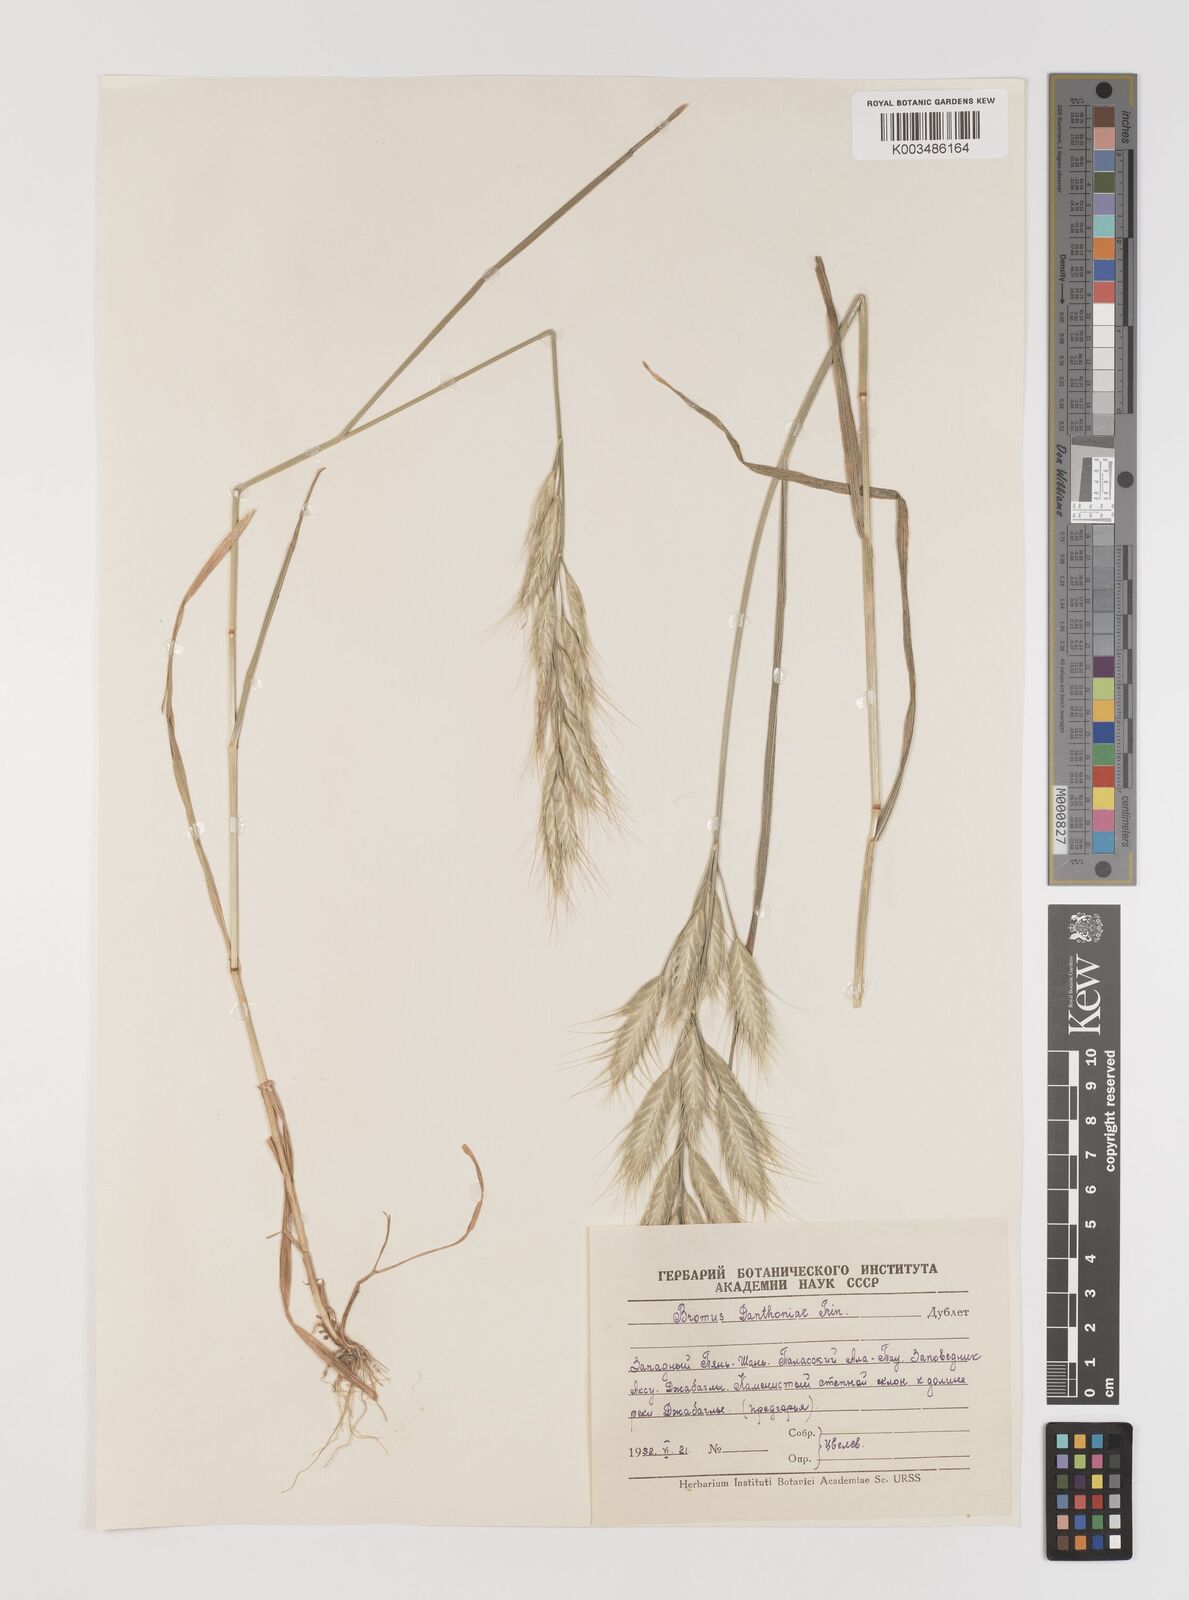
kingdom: Plantae
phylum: Tracheophyta
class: Liliopsida
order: Poales
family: Poaceae
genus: Bromus
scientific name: Bromus danthoniae
